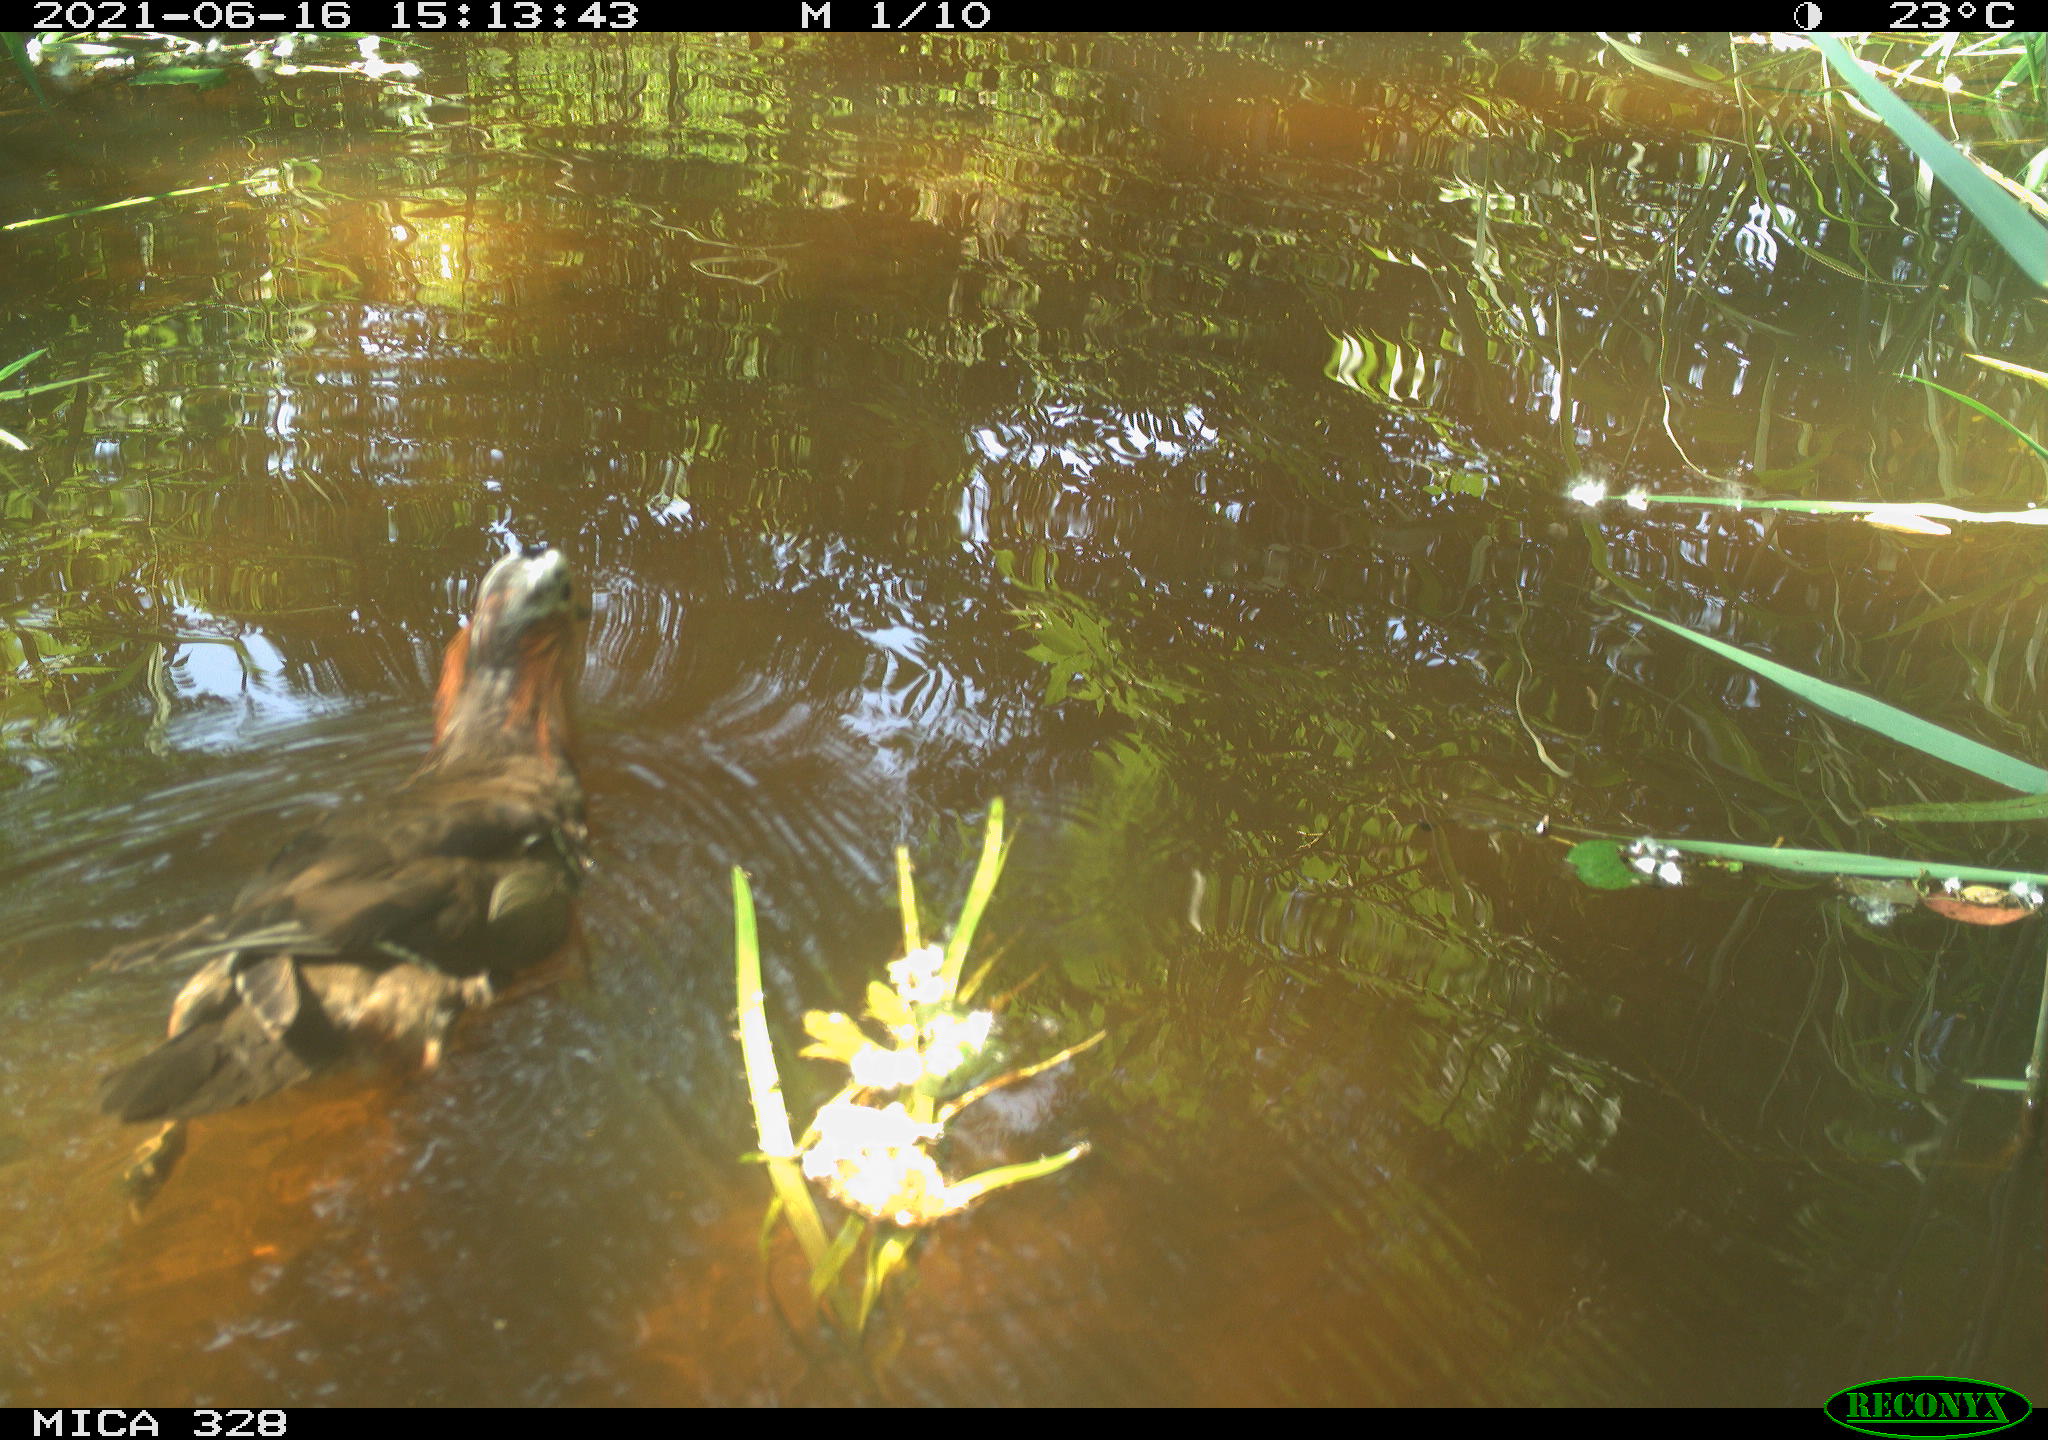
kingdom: Animalia
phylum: Chordata
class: Aves
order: Anseriformes
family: Anatidae
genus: Aix
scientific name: Aix galericulata
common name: Mandarin duck
